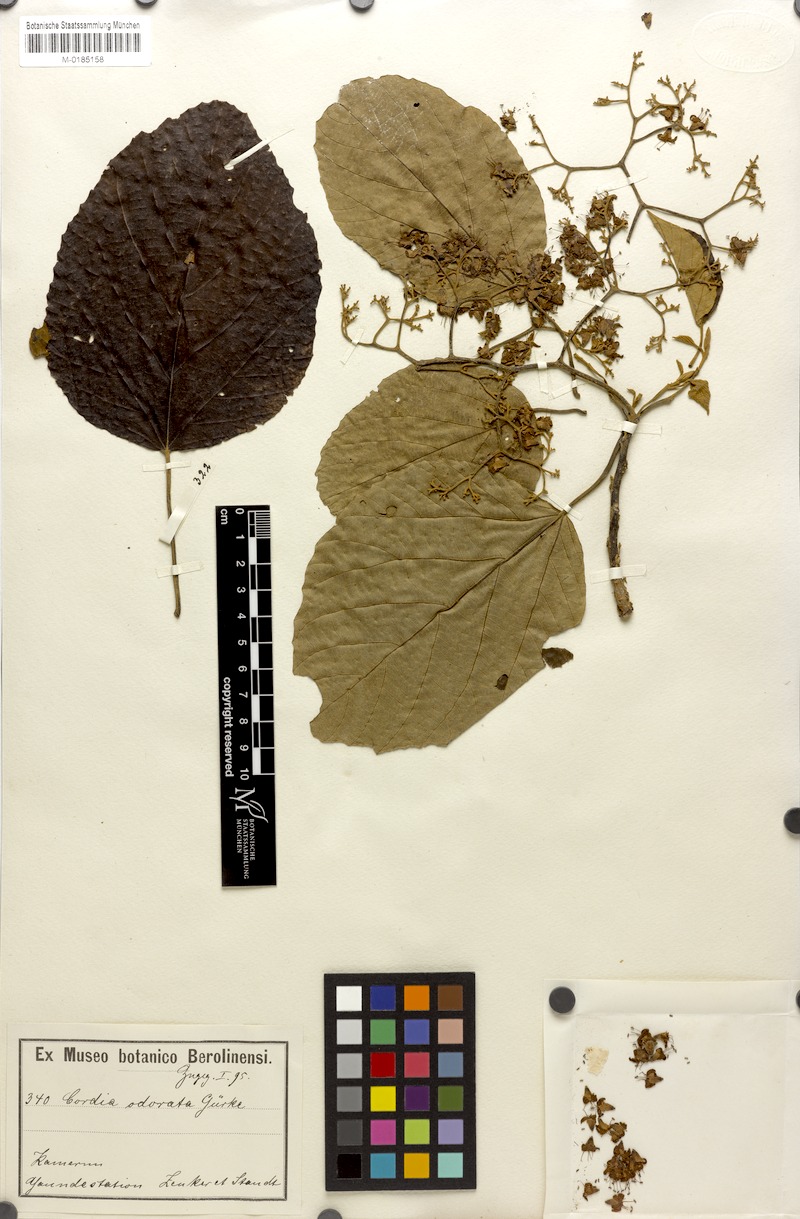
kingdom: Plantae
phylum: Tracheophyta
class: Magnoliopsida
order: Boraginales
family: Cordiaceae
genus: Cordia
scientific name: Cordia platythyrsa
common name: West african cordia
